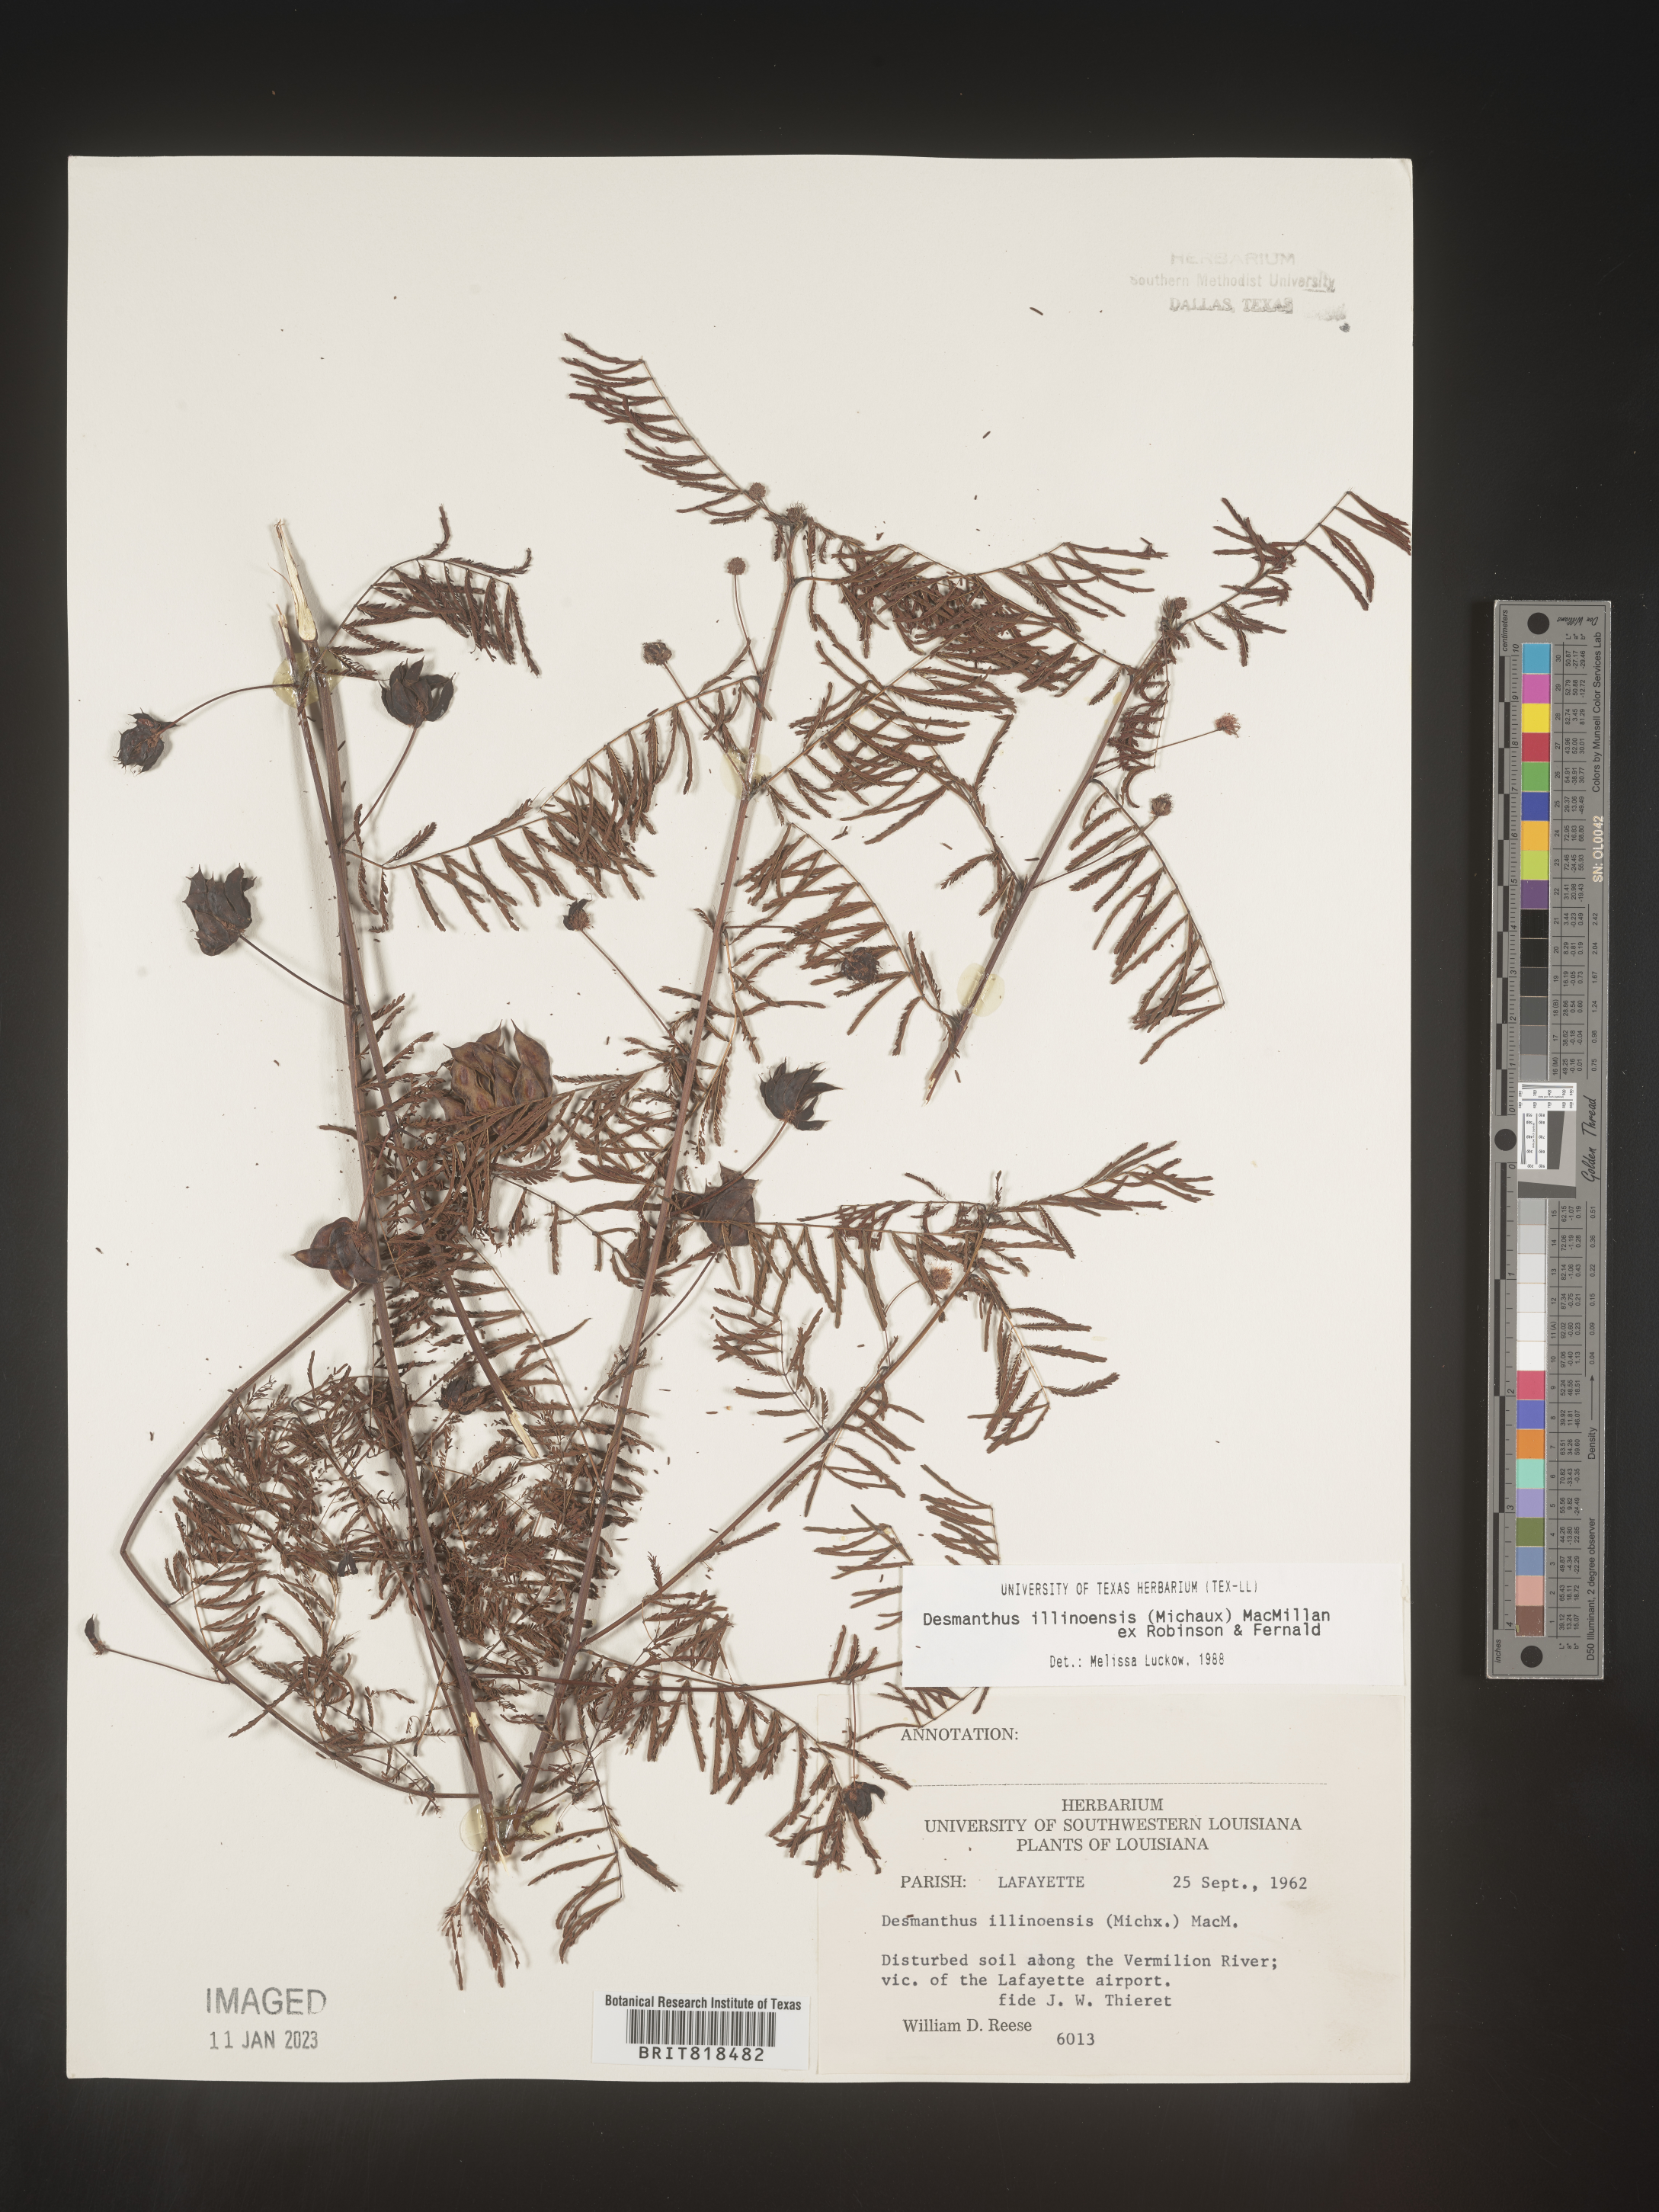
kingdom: Plantae
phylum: Tracheophyta
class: Magnoliopsida
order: Fabales
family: Fabaceae
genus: Desmanthus
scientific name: Desmanthus illinoensis
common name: Illinois bundle-flower
